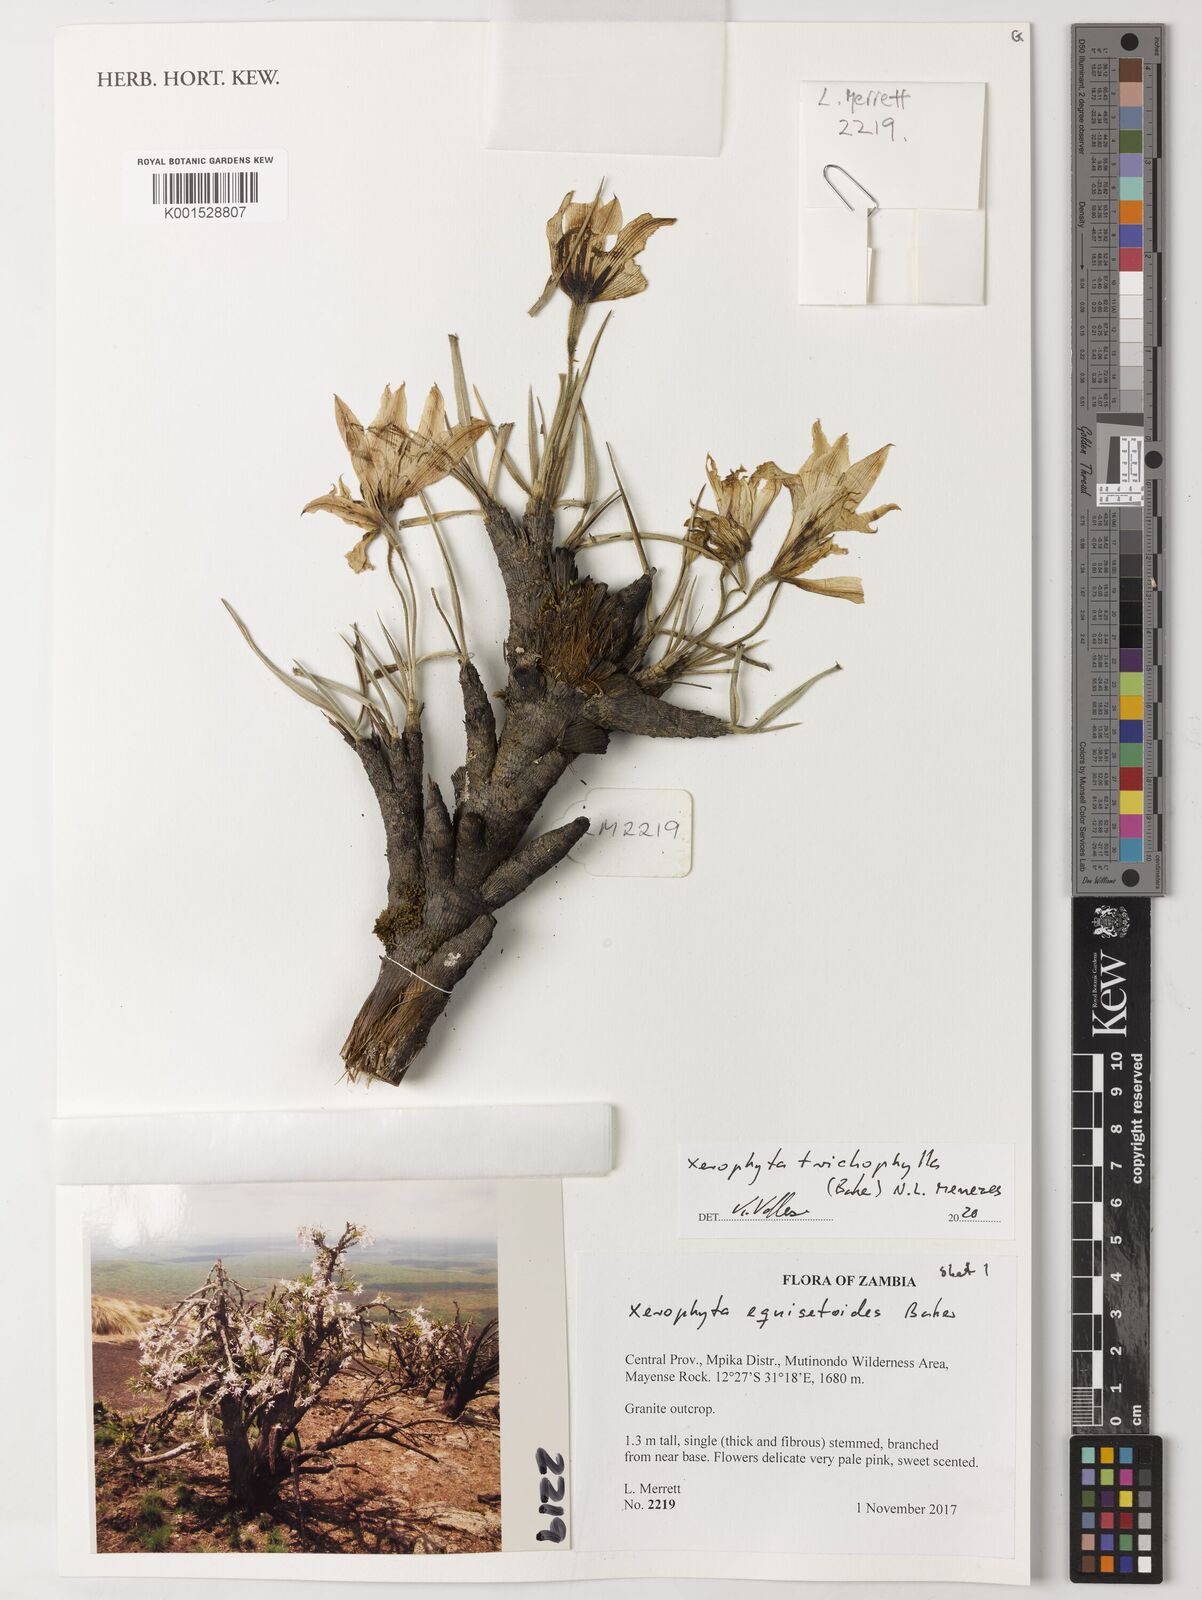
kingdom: Plantae
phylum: Tracheophyta
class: Liliopsida
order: Pandanales
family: Velloziaceae
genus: Xerophyta
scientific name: Xerophyta trichophylla
